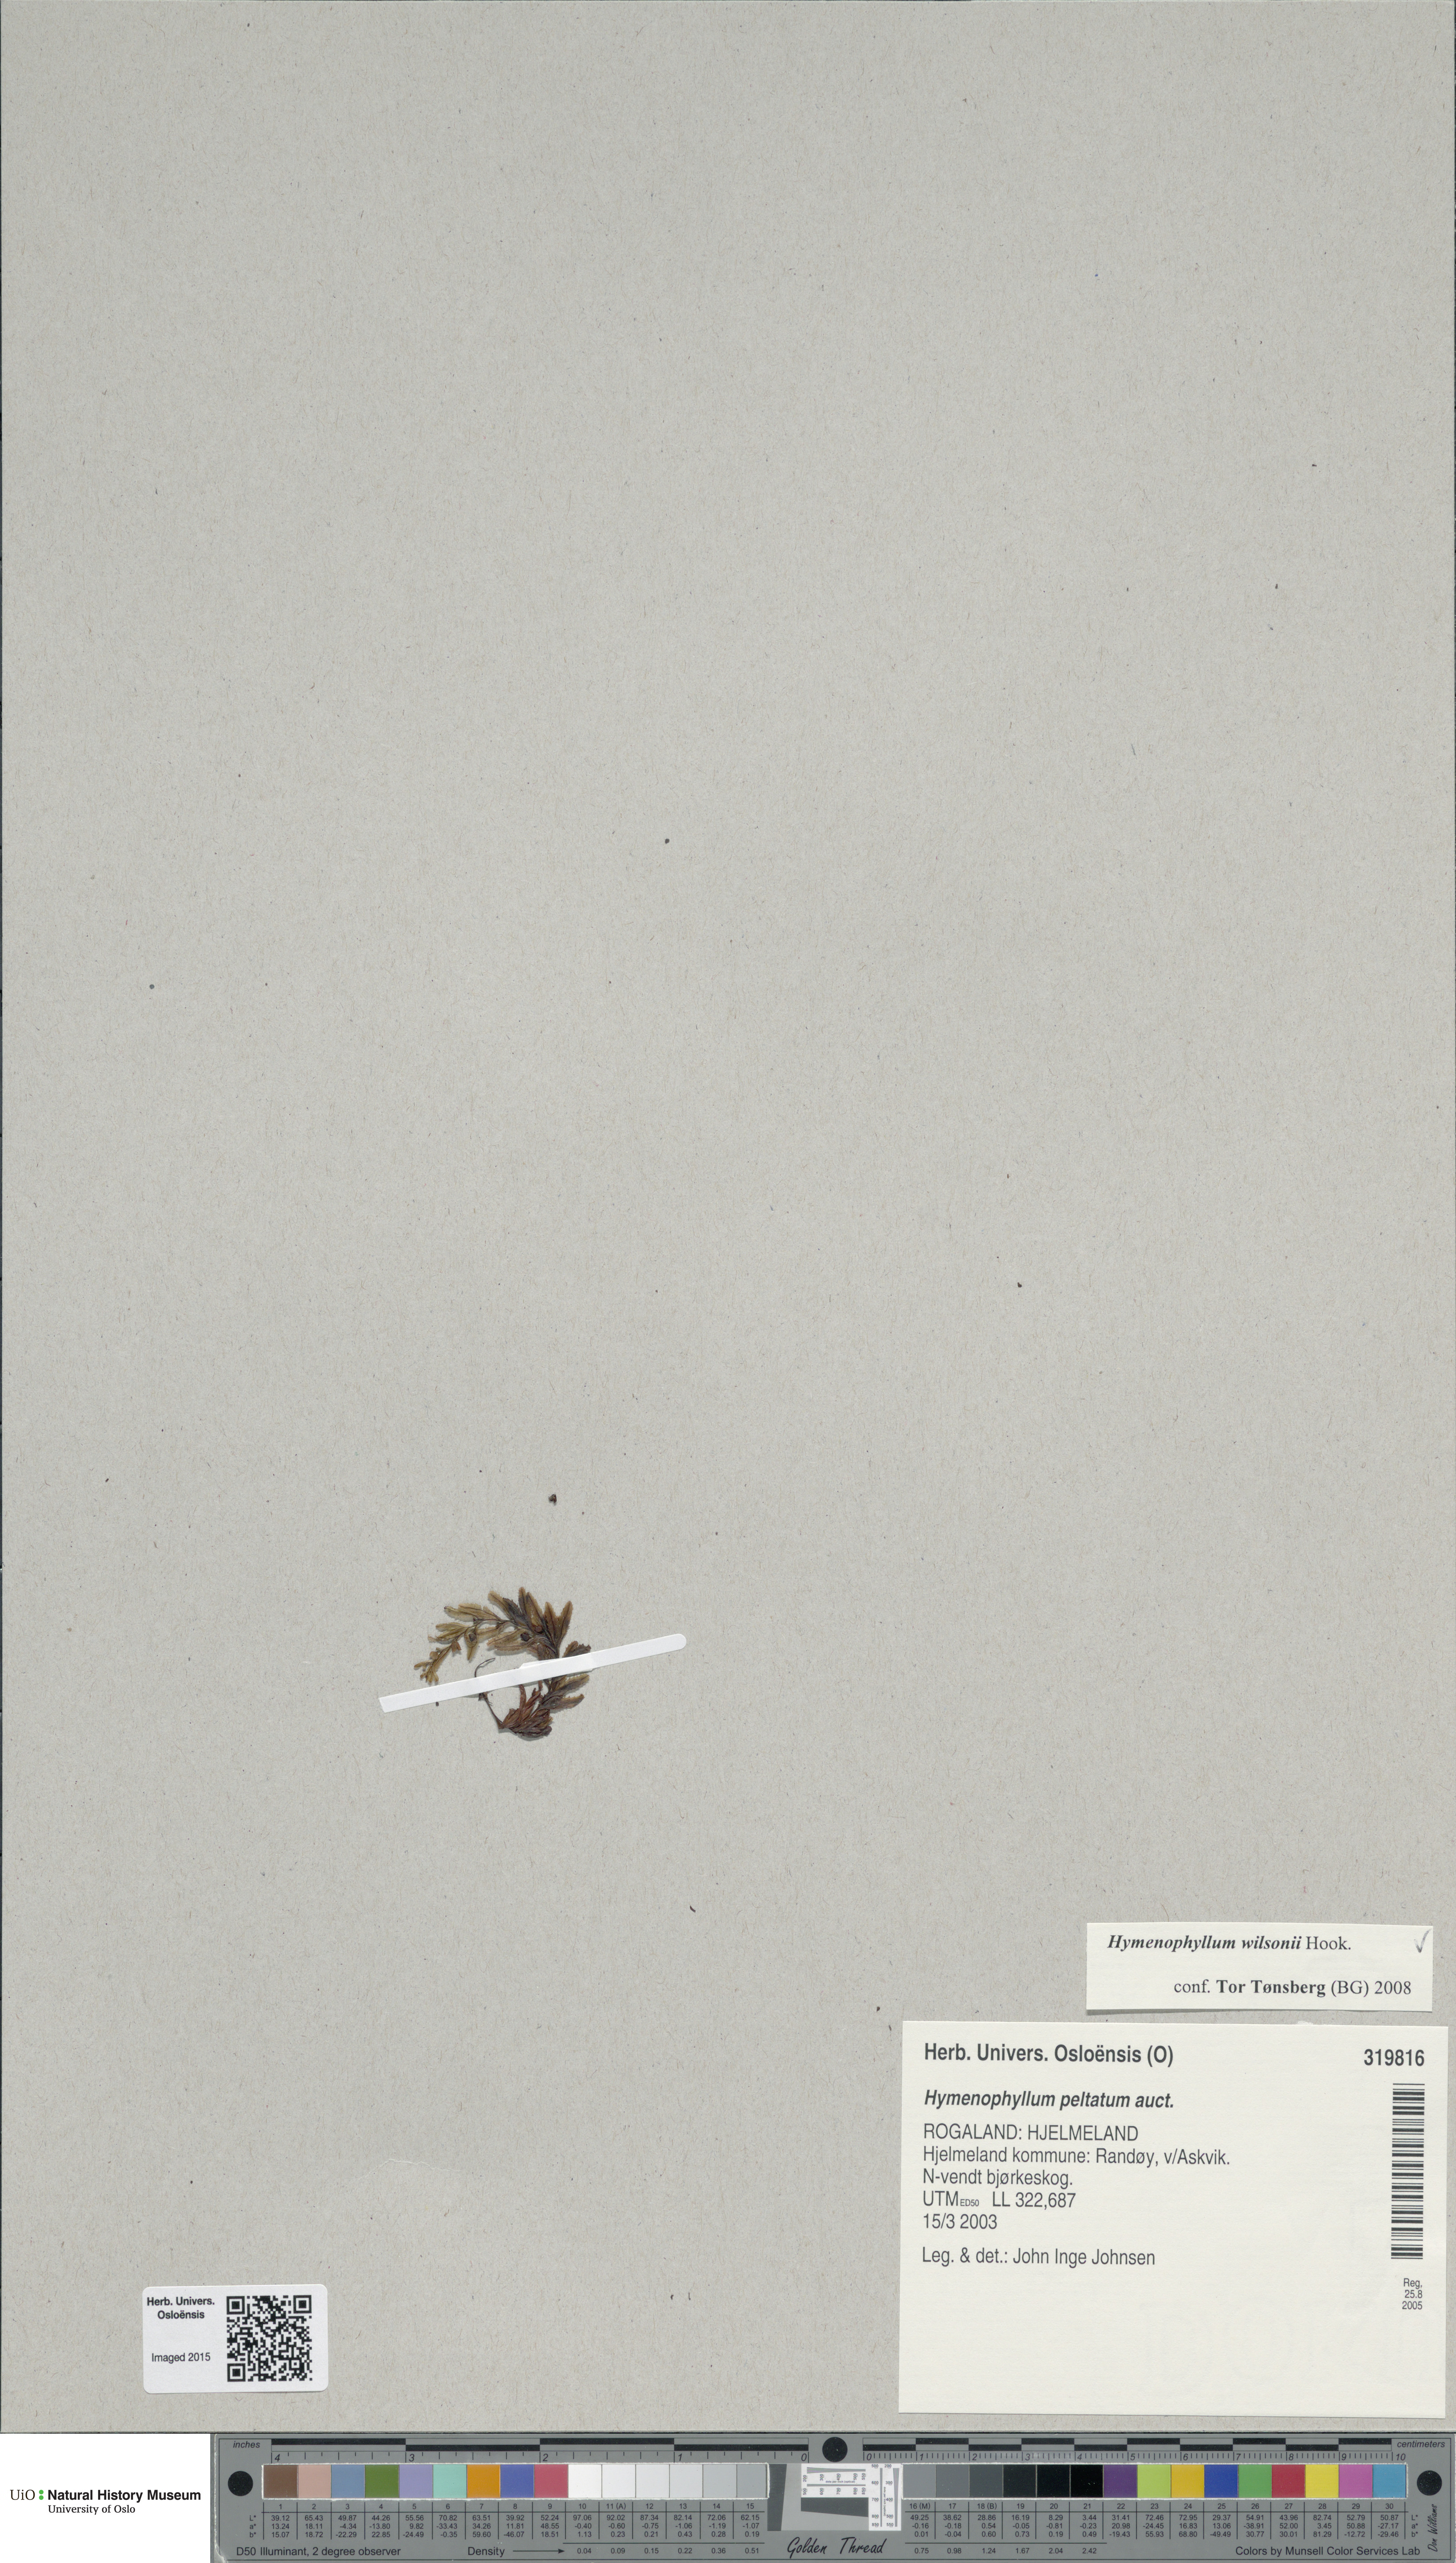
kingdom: Plantae
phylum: Tracheophyta
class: Polypodiopsida
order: Hymenophyllales
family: Hymenophyllaceae
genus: Hymenophyllum
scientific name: Hymenophyllum peltatum
